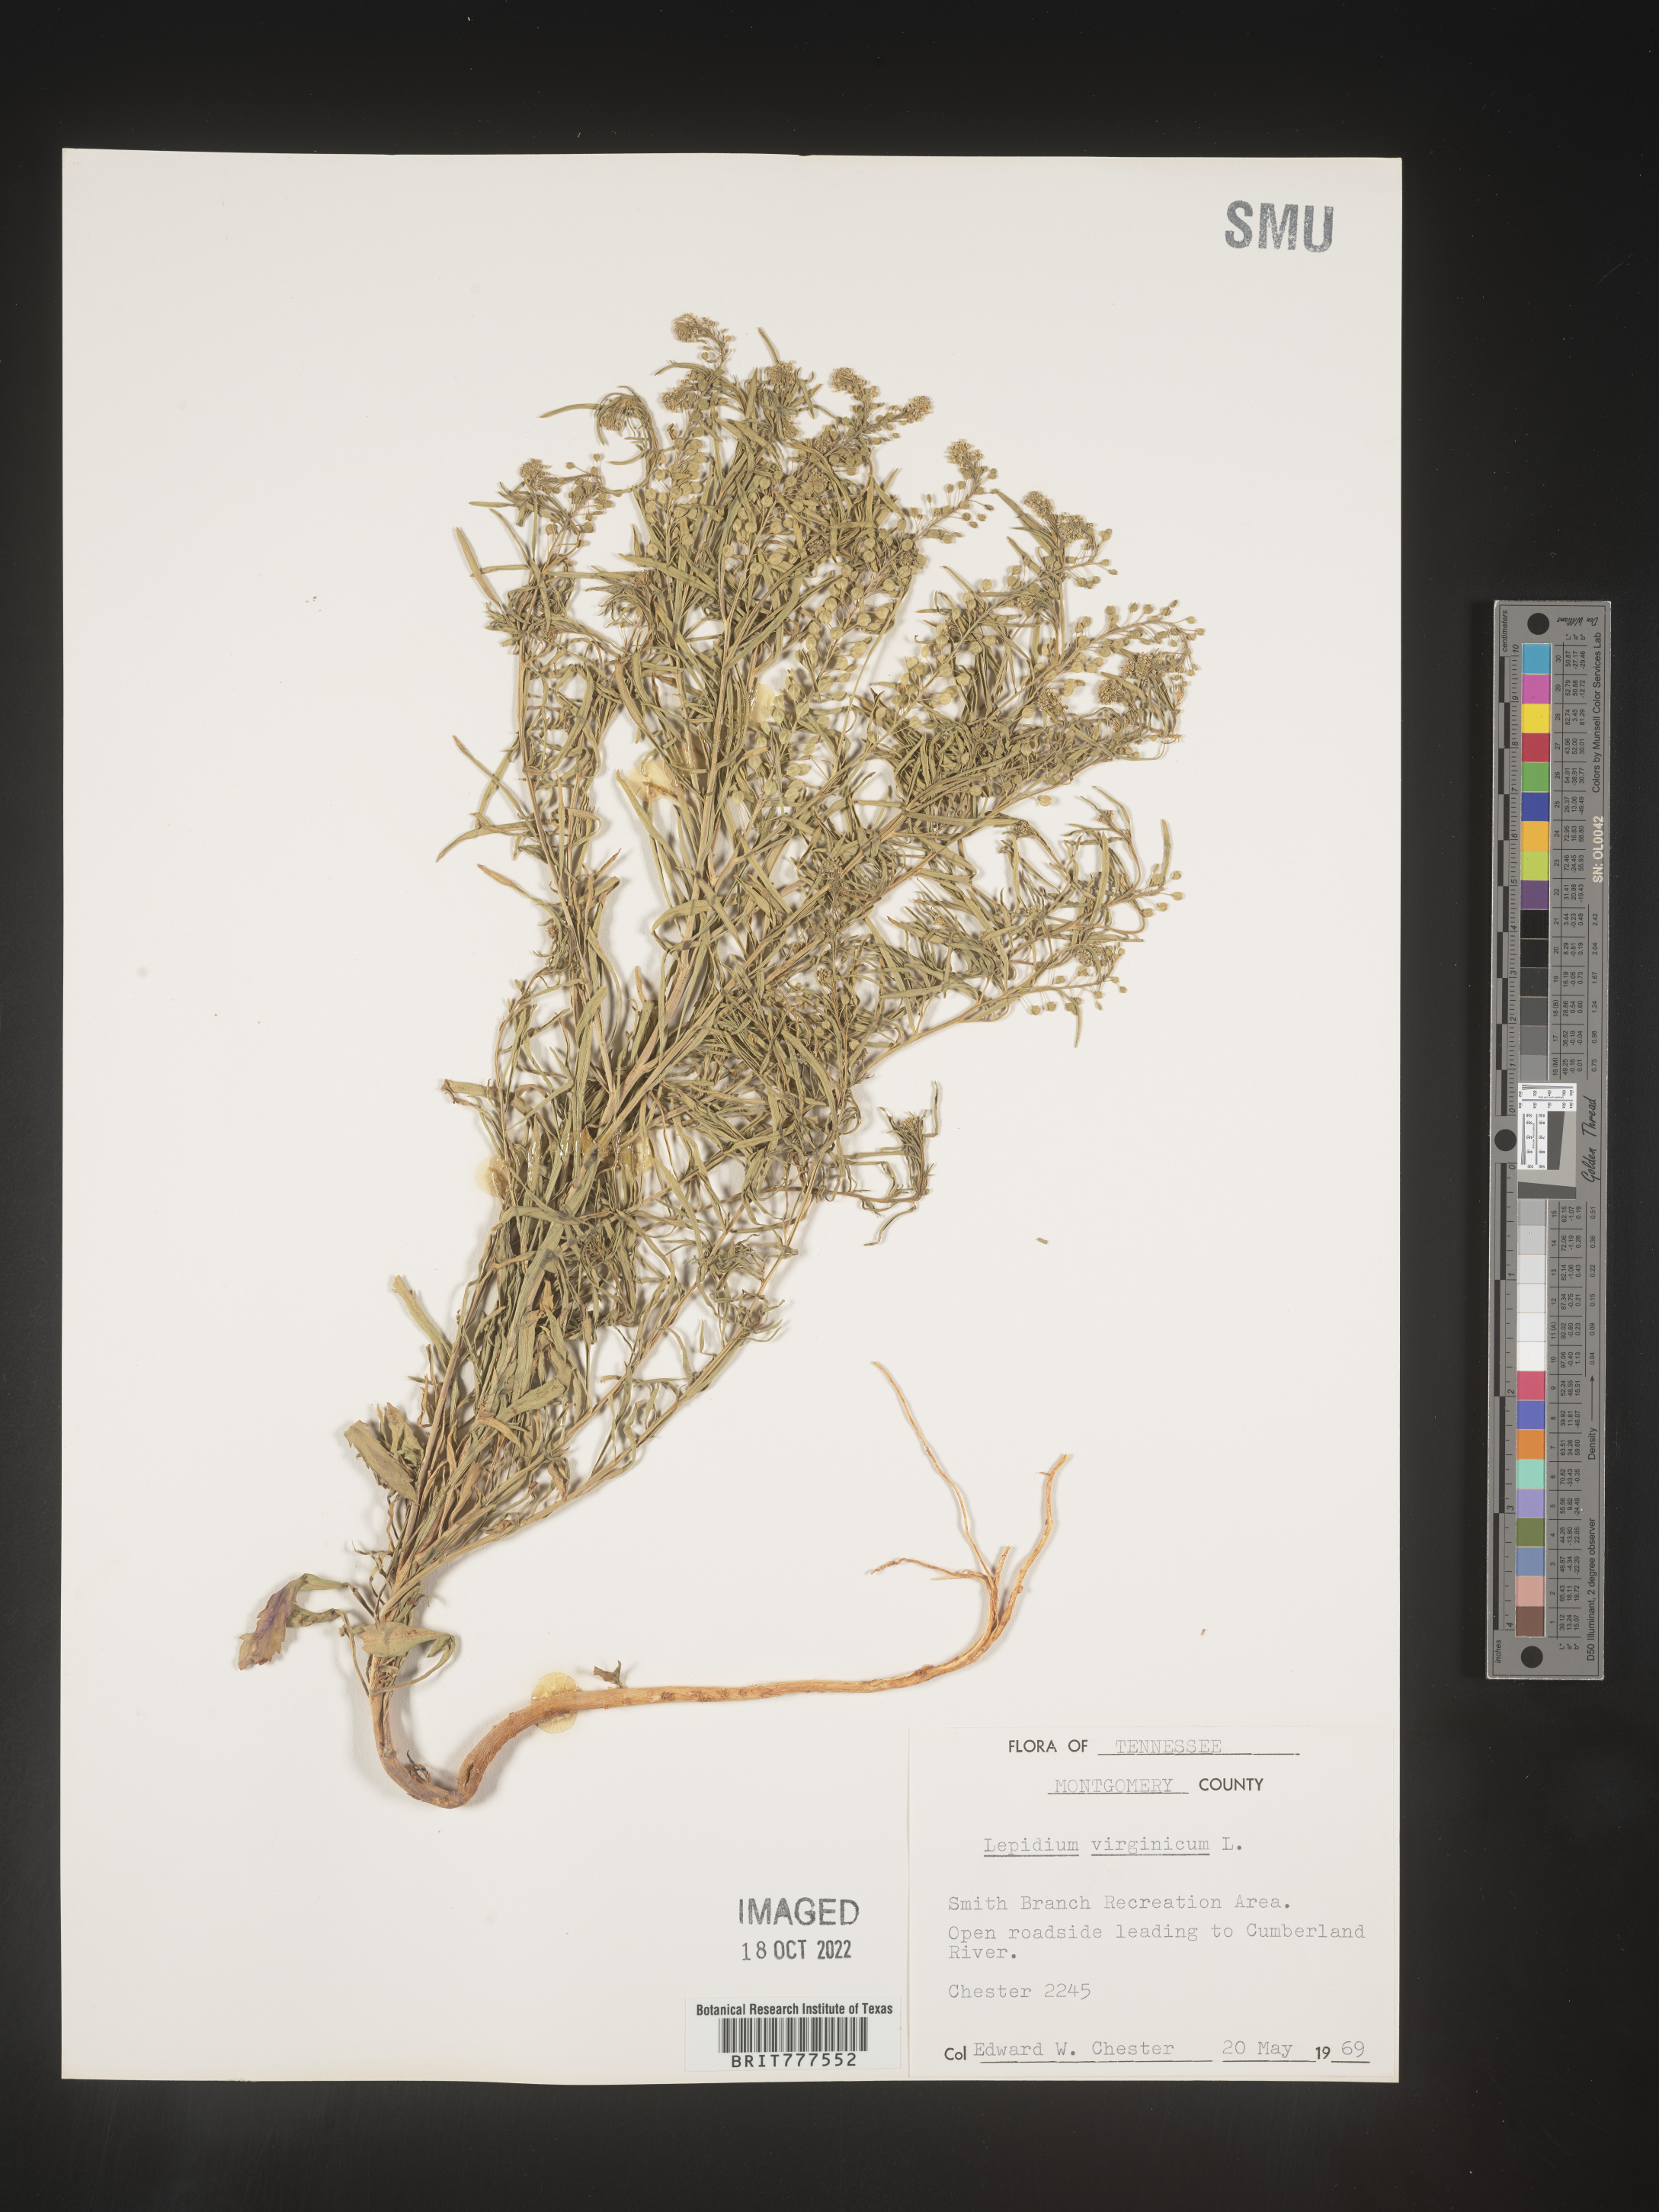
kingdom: Plantae
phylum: Tracheophyta
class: Magnoliopsida
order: Brassicales
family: Brassicaceae
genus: Lepidium
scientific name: Lepidium virginicum
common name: Least pepperwort
